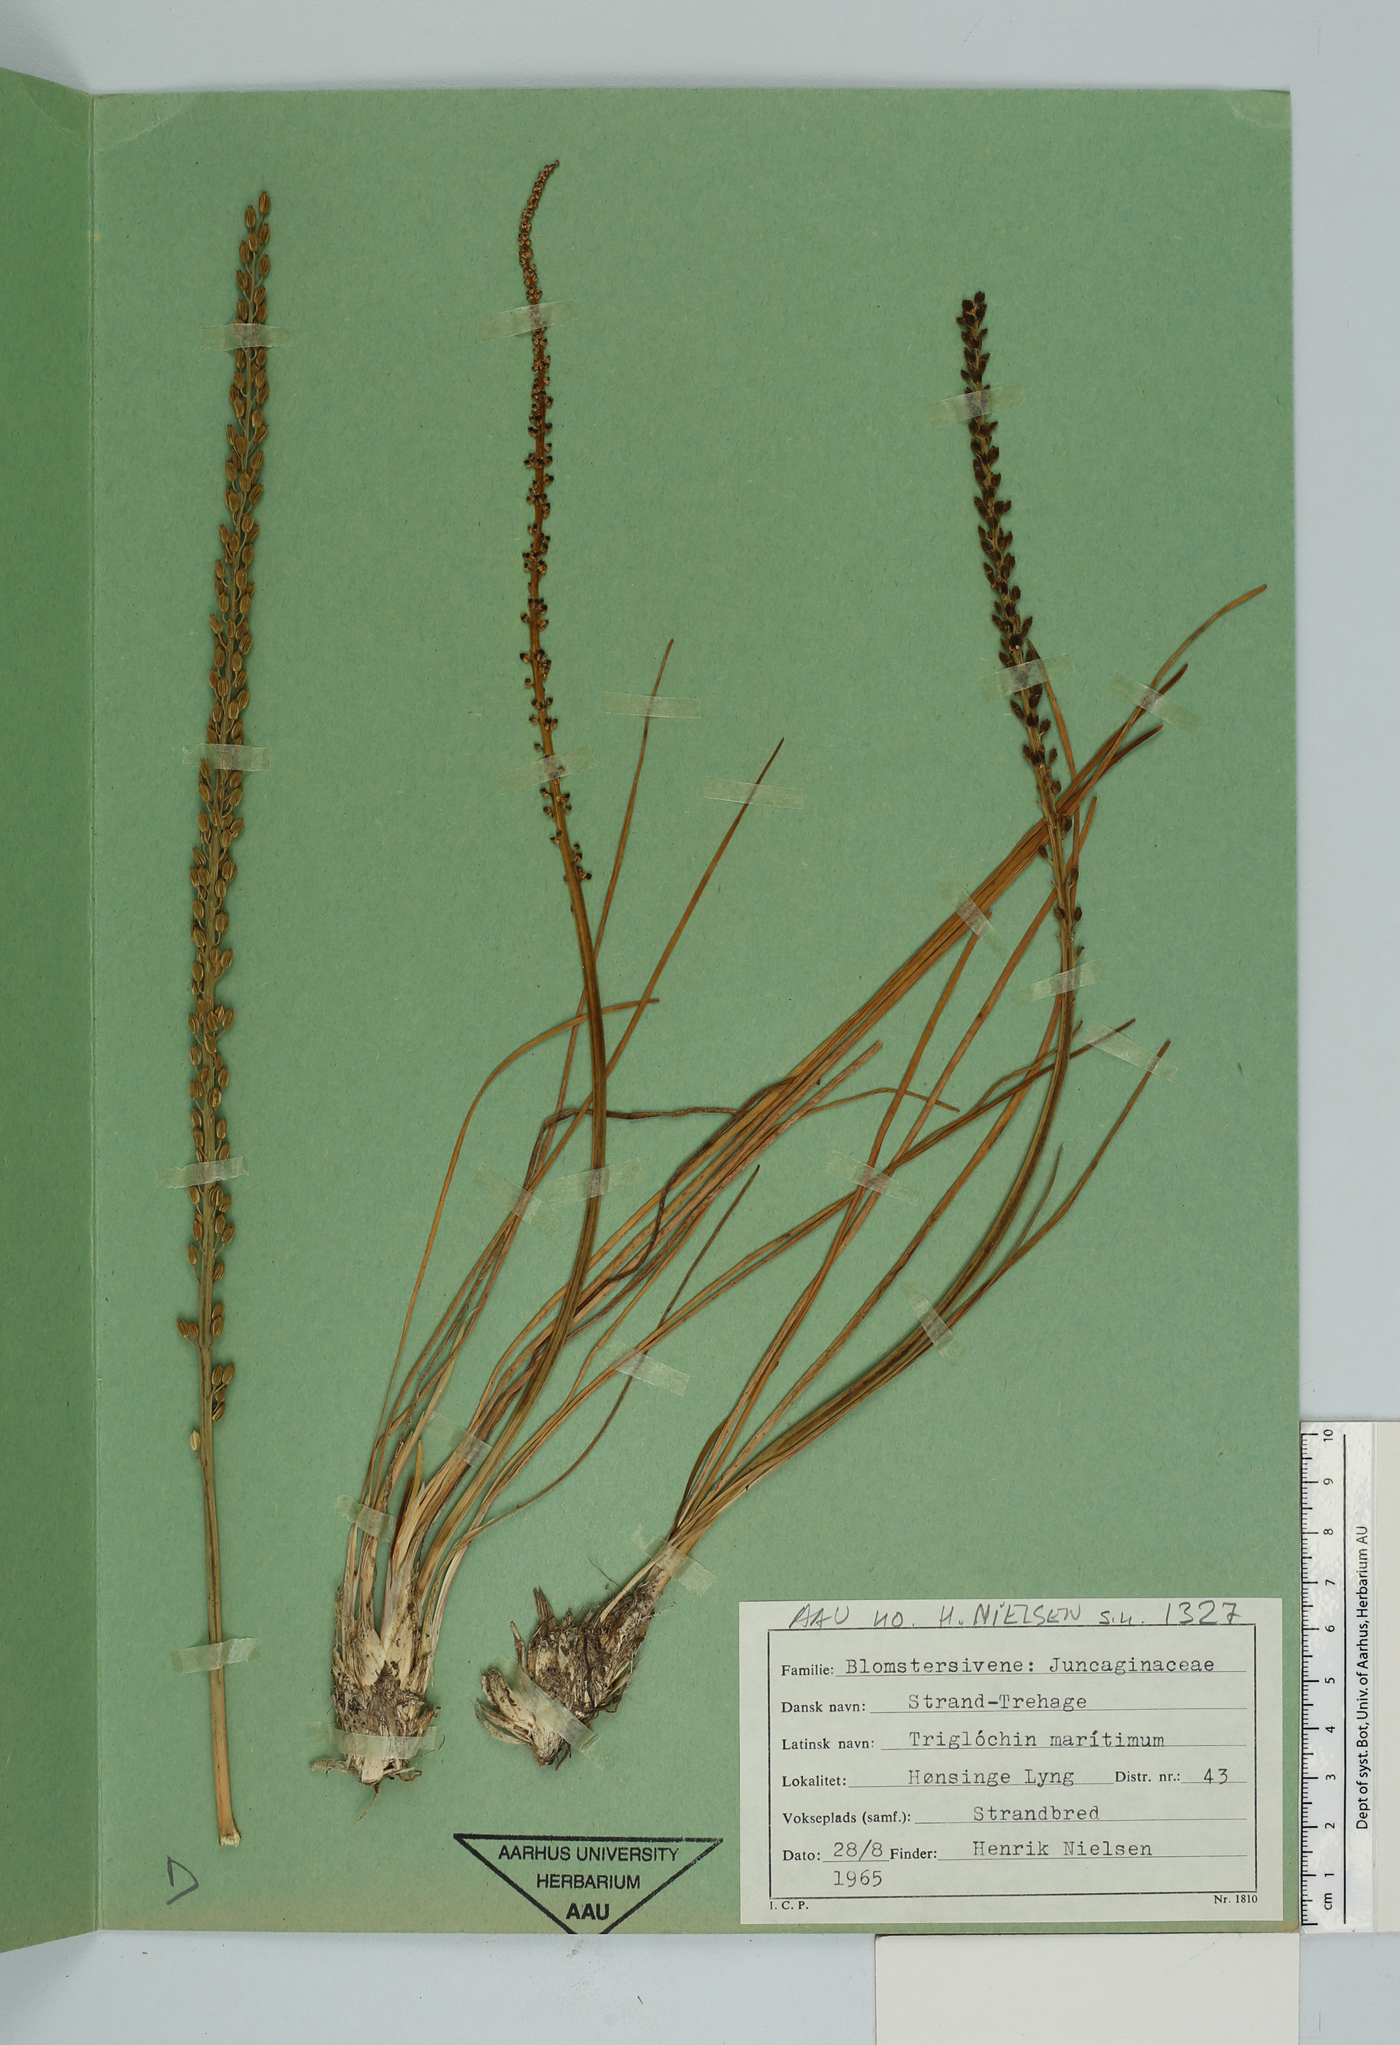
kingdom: Plantae
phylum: Tracheophyta
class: Liliopsida
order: Alismatales
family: Juncaginaceae
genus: Triglochin
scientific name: Triglochin maritima
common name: Sea arrowgrass
